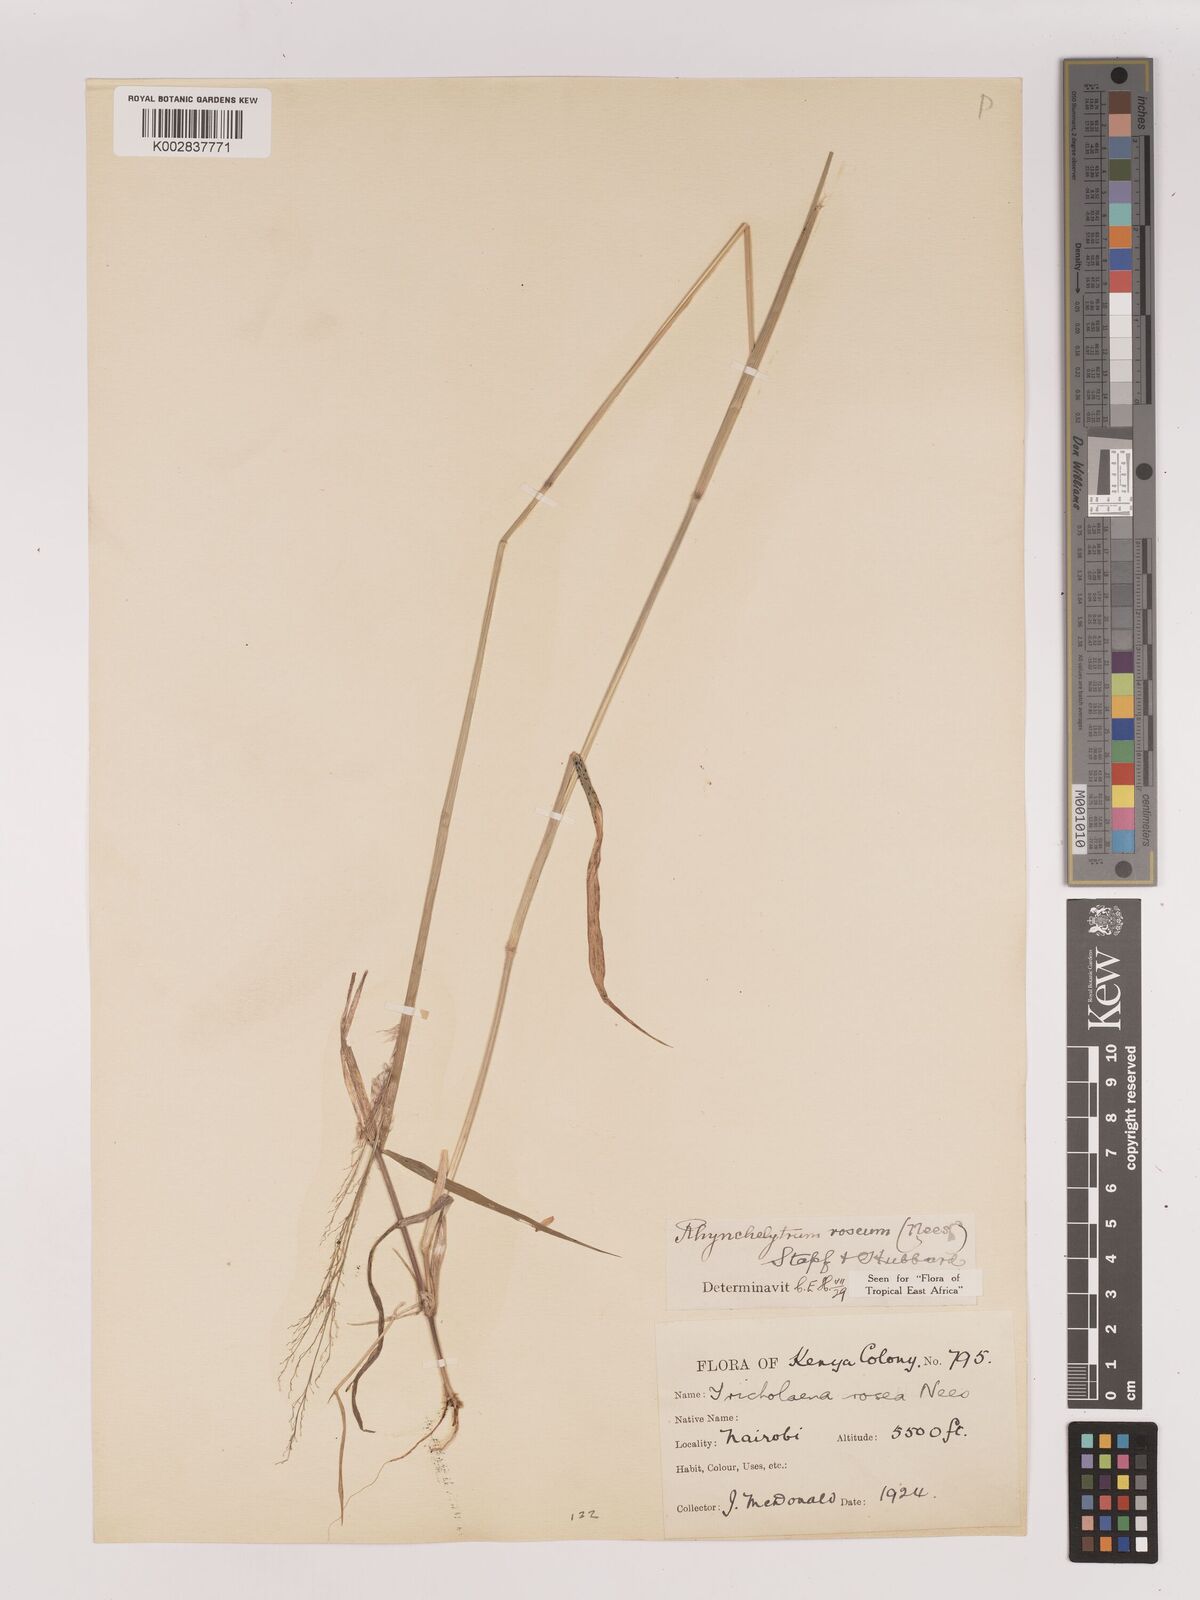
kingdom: Plantae
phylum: Tracheophyta
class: Liliopsida
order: Poales
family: Poaceae
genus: Melinis
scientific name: Melinis repens
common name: Rose natal grass
